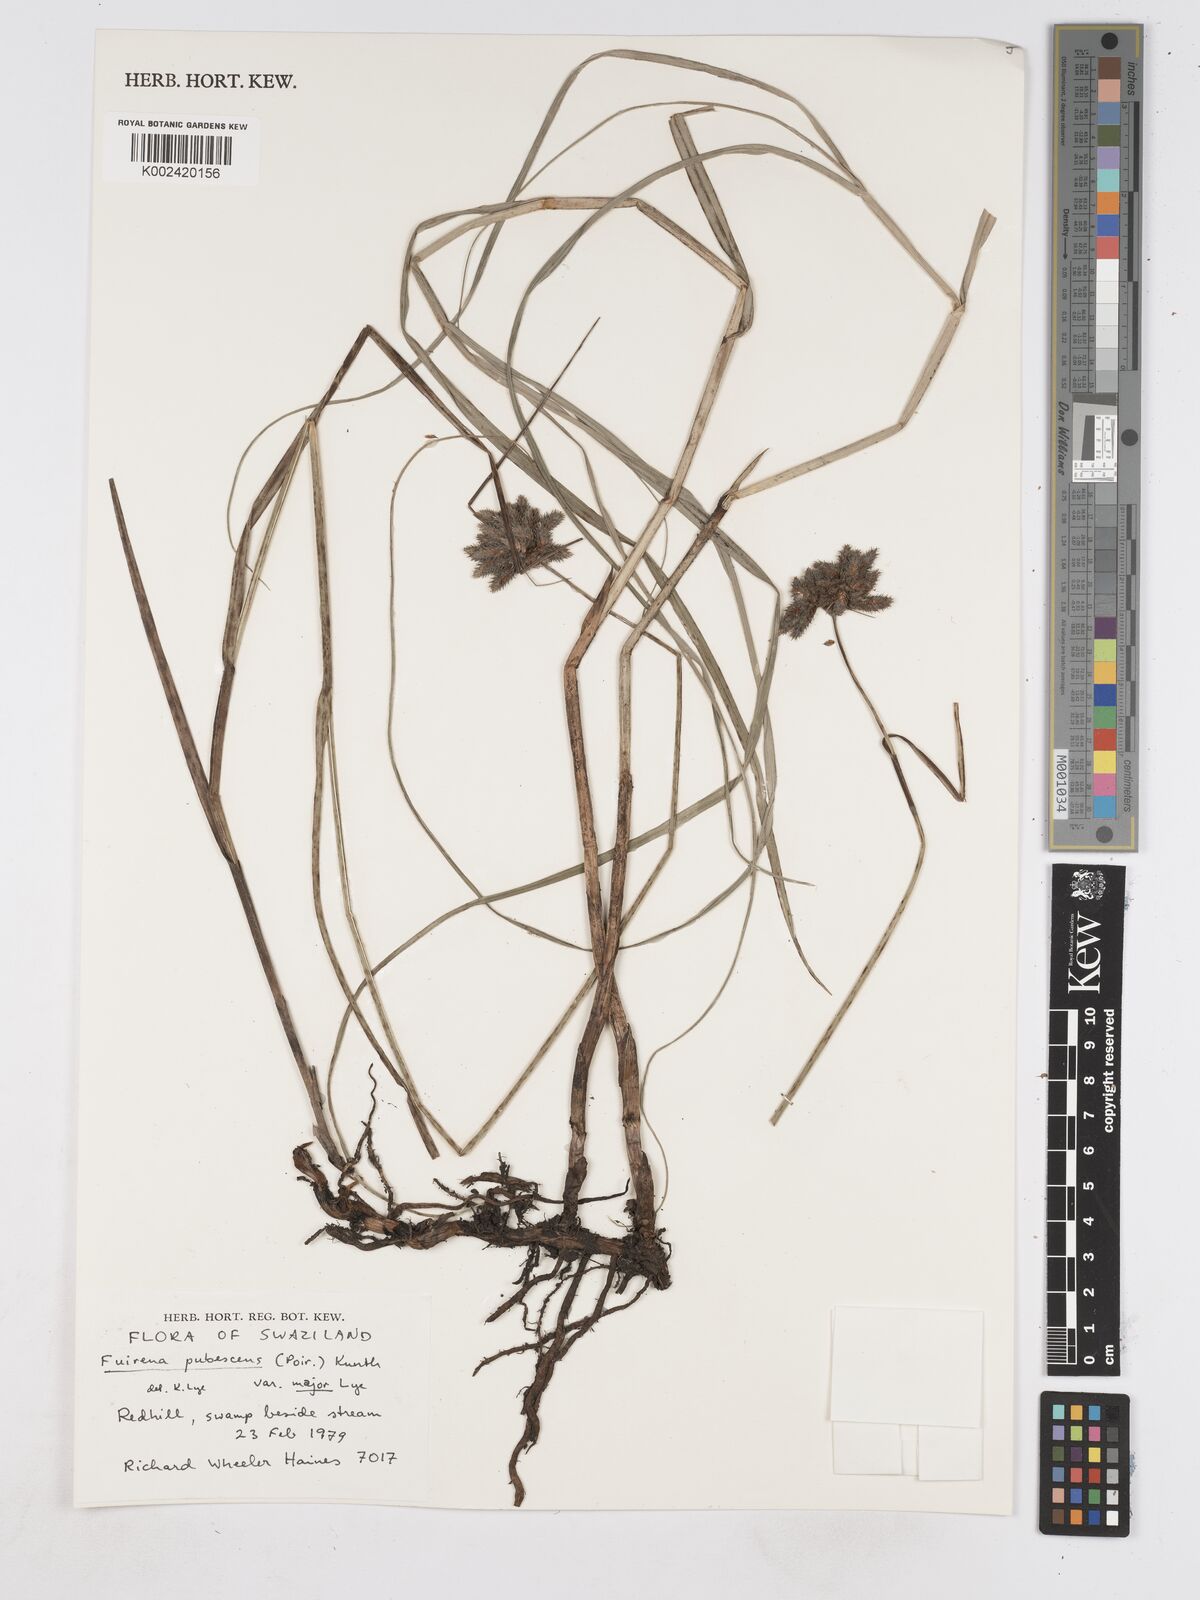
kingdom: Plantae
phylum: Tracheophyta
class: Liliopsida
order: Poales
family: Cyperaceae
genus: Fuirena
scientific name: Fuirena pachyrrhiza
